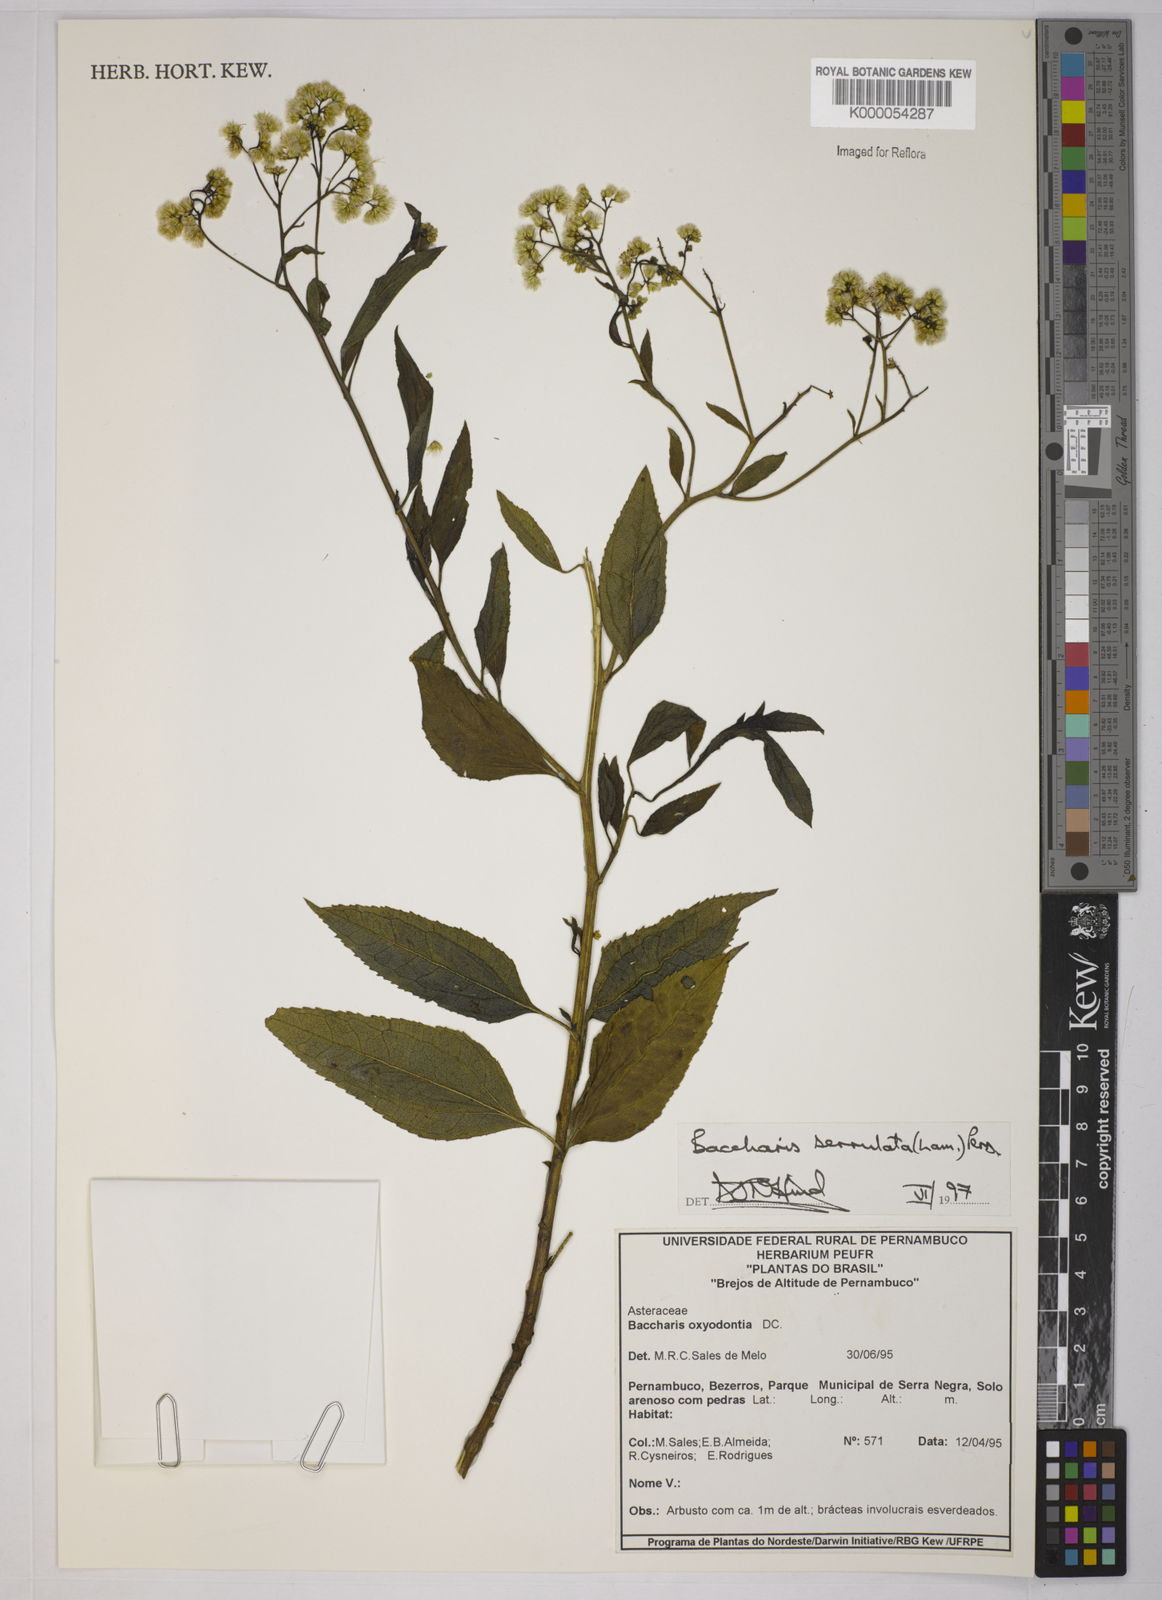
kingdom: Plantae
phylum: Tracheophyta
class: Magnoliopsida
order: Asterales
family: Asteraceae
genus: Baccharis
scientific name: Baccharis serrulata
